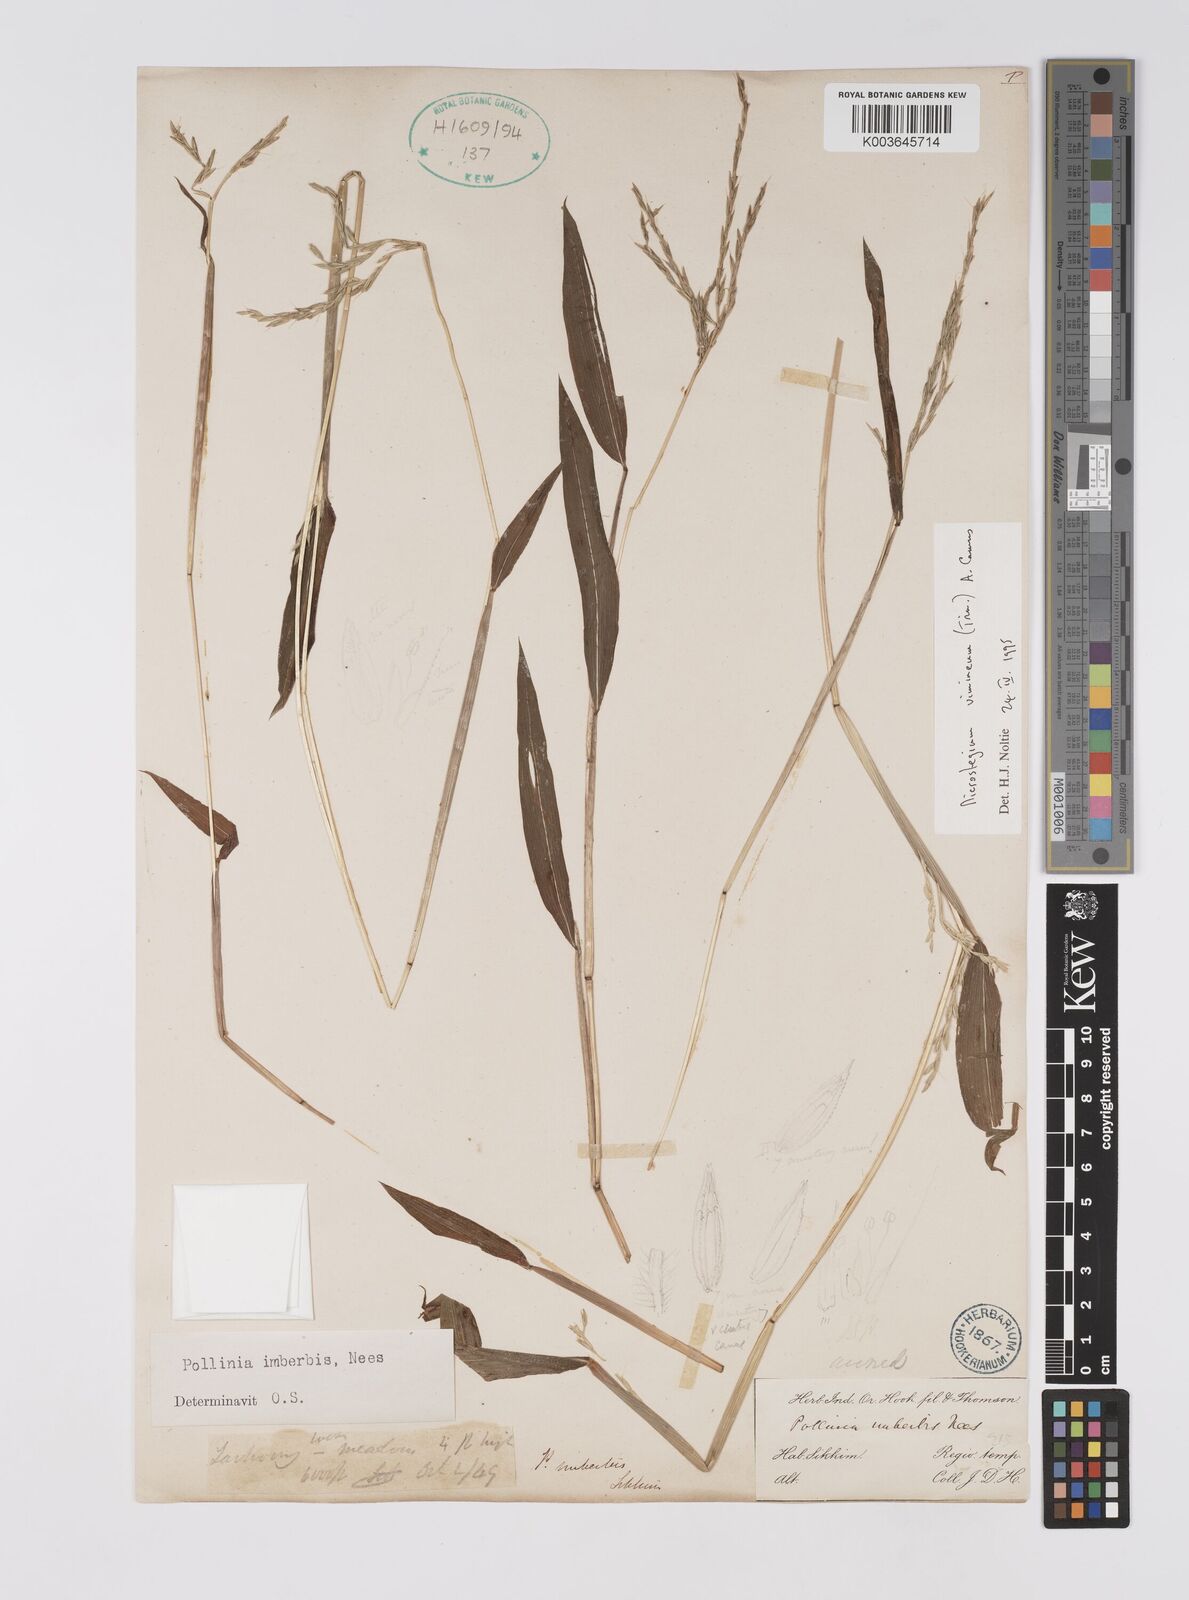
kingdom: Plantae
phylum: Tracheophyta
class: Liliopsida
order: Poales
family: Poaceae
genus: Microstegium
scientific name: Microstegium vimineum
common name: Japanese stiltgrass
